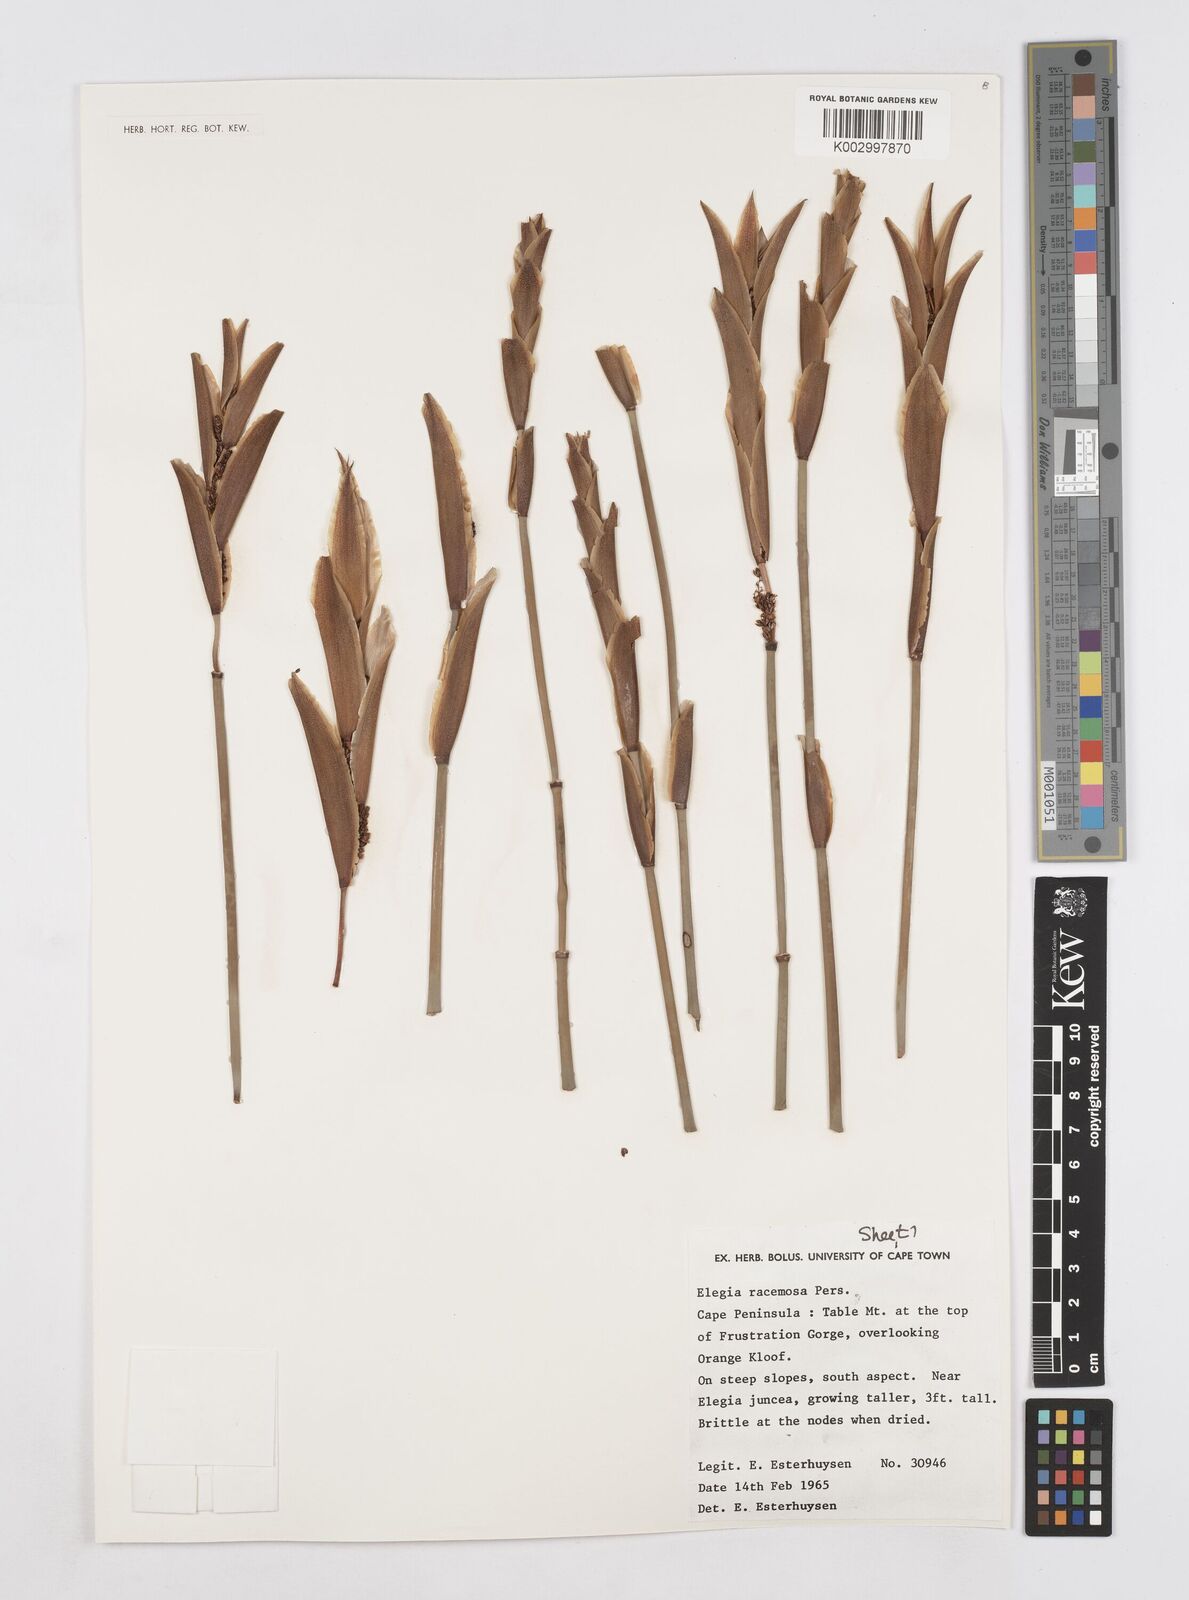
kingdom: Plantae
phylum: Tracheophyta
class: Liliopsida
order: Poales
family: Restionaceae
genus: Elegia
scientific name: Elegia racemosa
